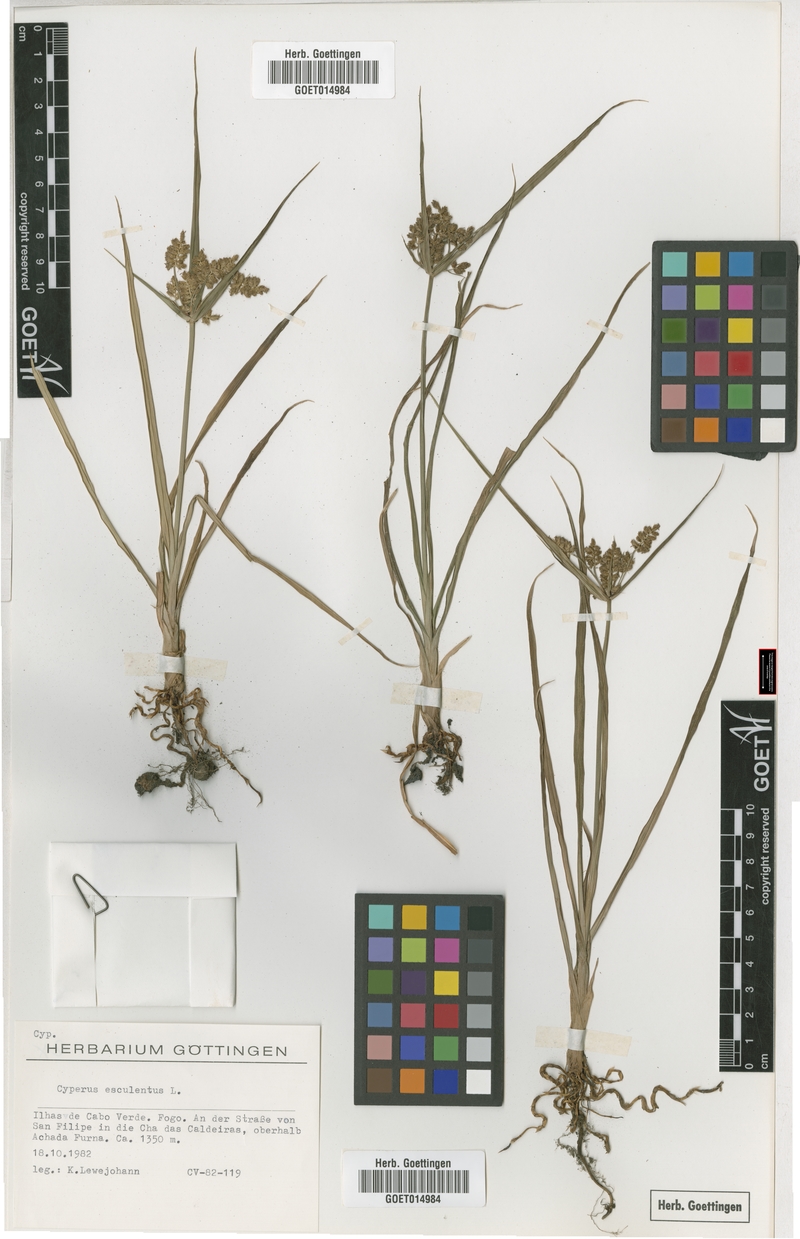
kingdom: Plantae
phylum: Tracheophyta
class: Liliopsida
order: Poales
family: Cyperaceae
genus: Cyperus
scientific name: Cyperus esculentus
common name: Yellow nutsedge
